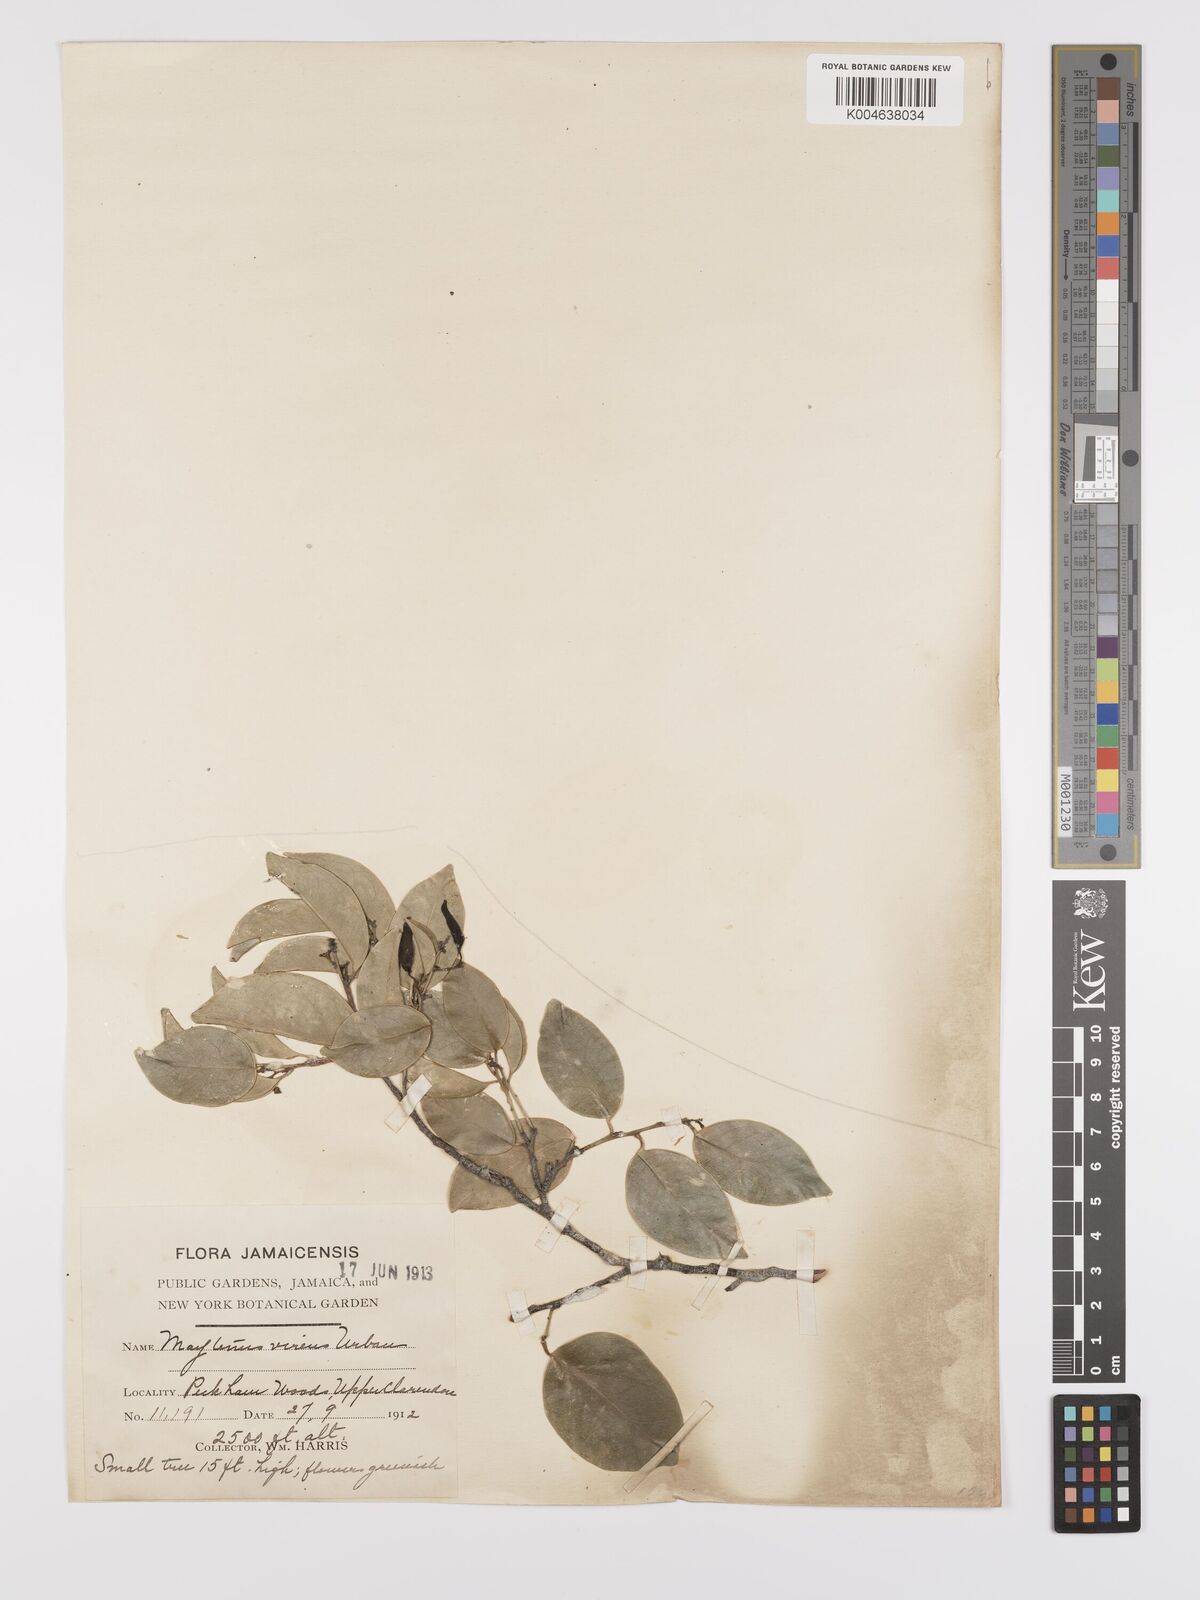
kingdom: Plantae
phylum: Tracheophyta
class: Magnoliopsida
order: Celastrales
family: Celastraceae
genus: Monteverdia
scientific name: Monteverdia virens
